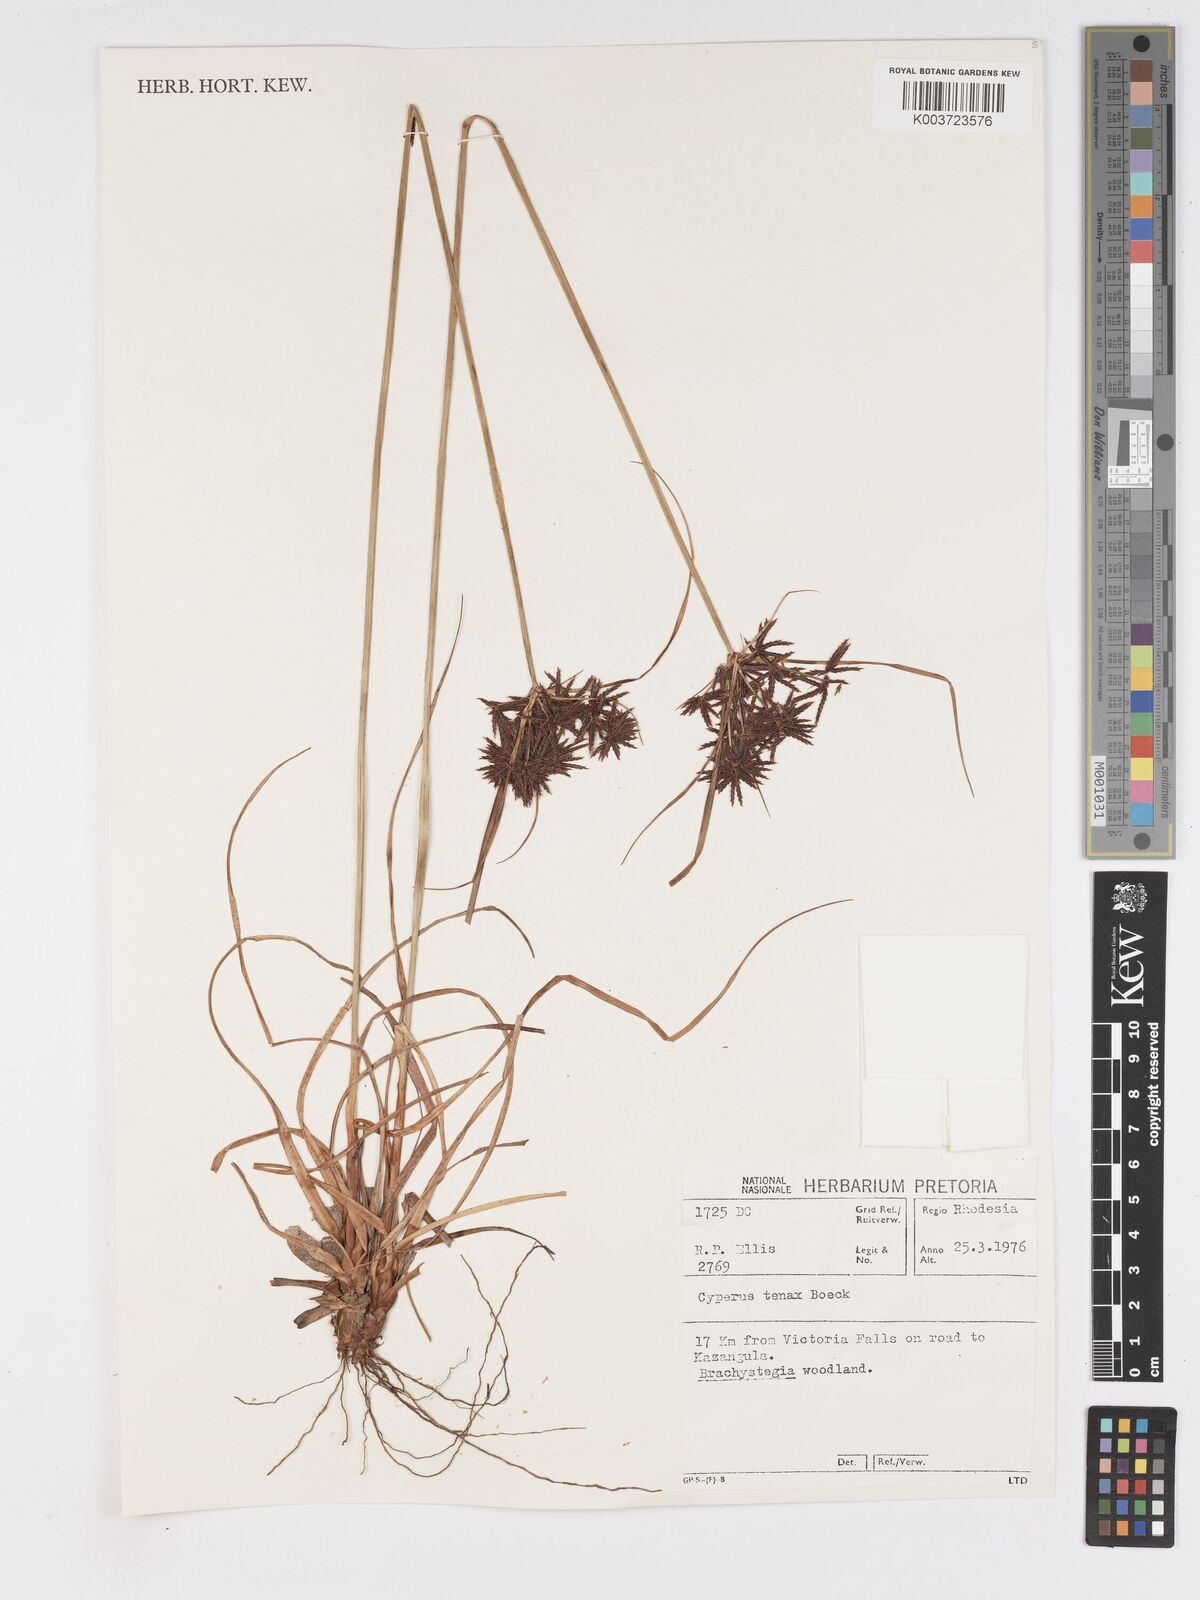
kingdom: Plantae
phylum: Tracheophyta
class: Liliopsida
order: Poales
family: Cyperaceae
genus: Cyperus
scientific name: Cyperus tenax
